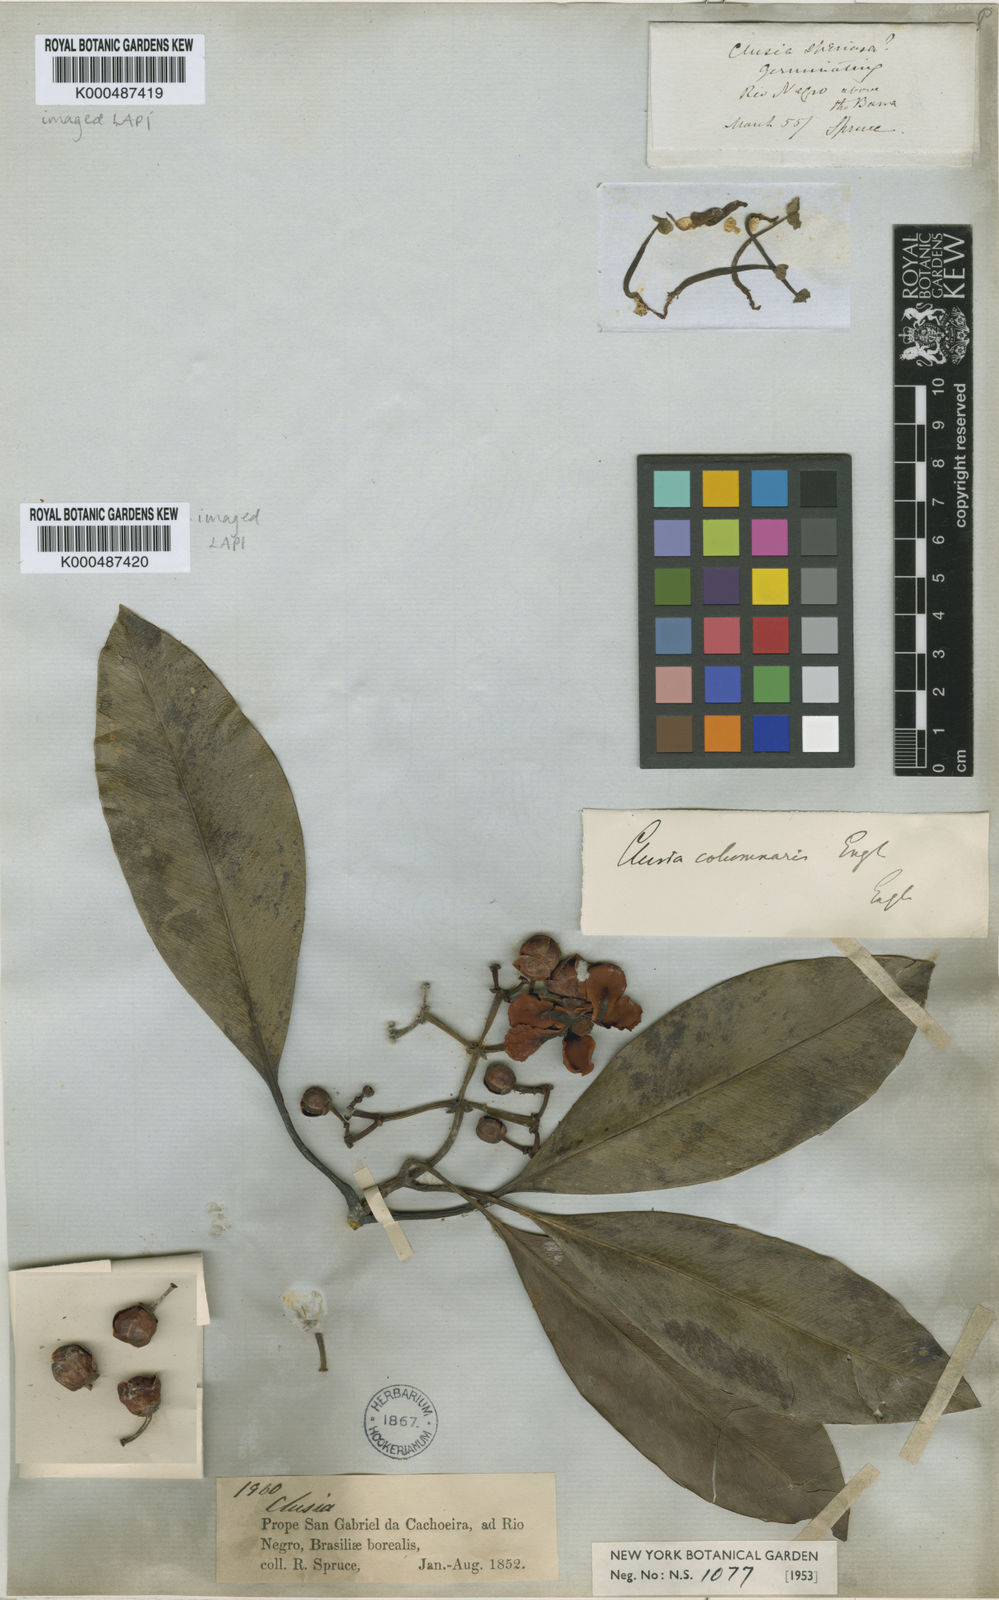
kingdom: Plantae
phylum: Tracheophyta
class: Magnoliopsida
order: Malpighiales
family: Clusiaceae
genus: Clusia
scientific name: Clusia columnaris
